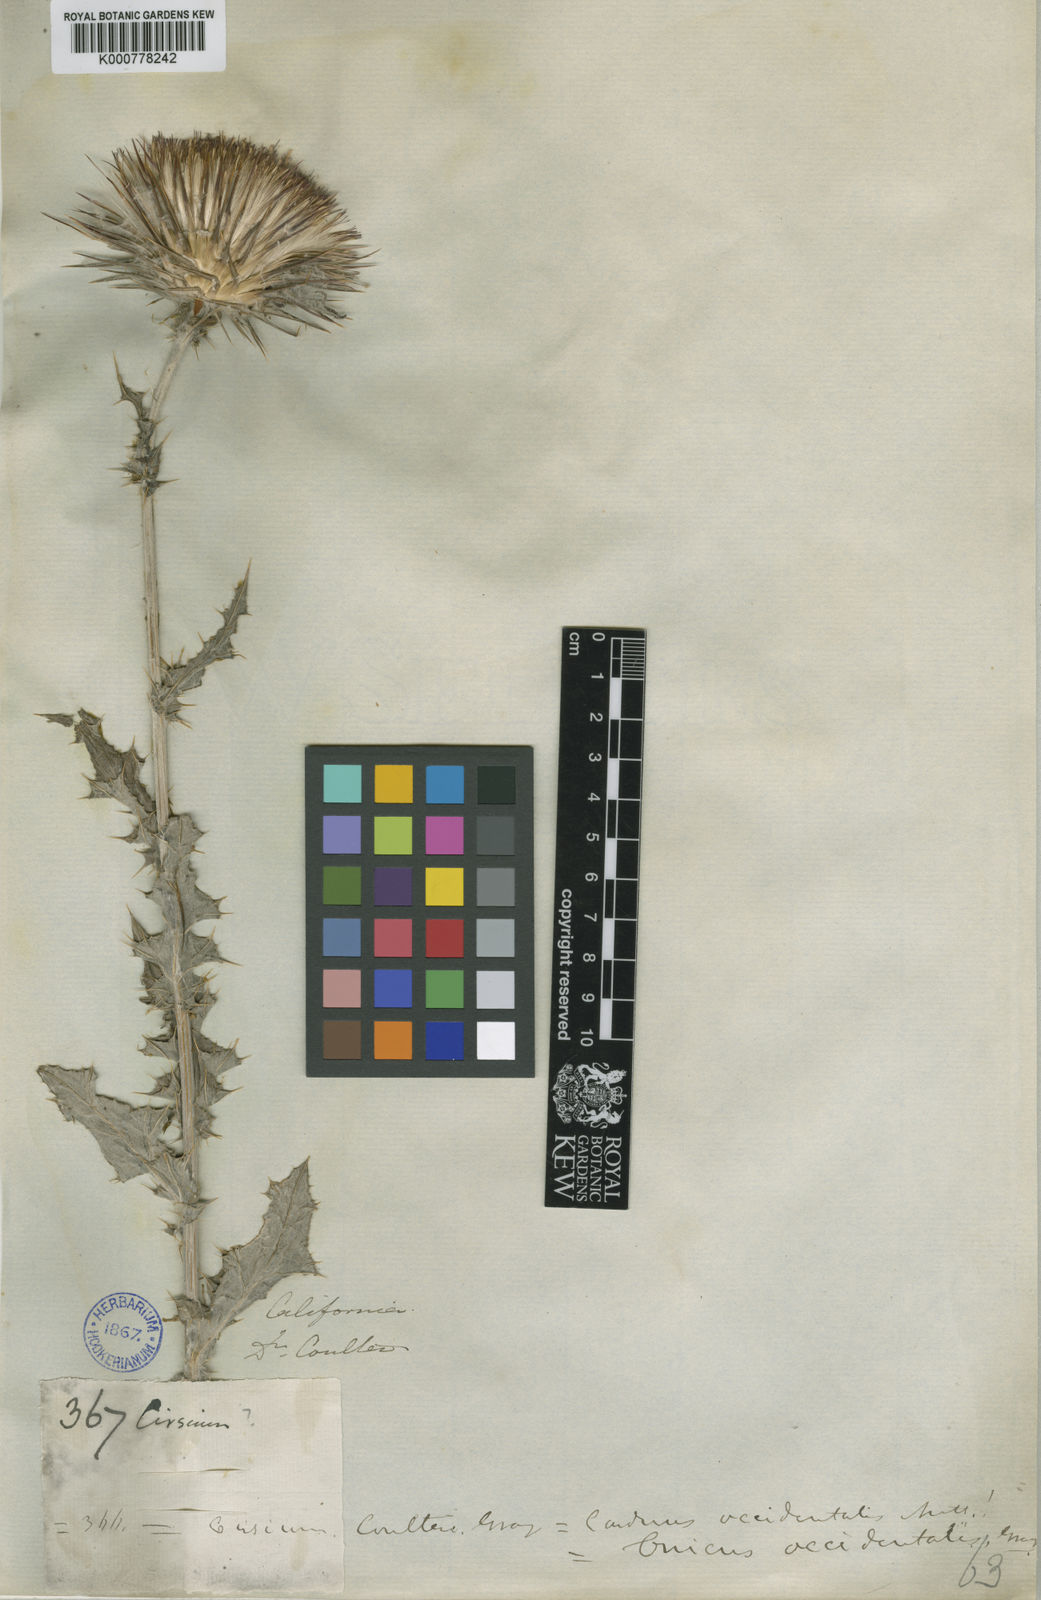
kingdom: Plantae
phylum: Tracheophyta
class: Magnoliopsida
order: Asterales
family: Asteraceae
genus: Cirsium
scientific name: Cirsium
